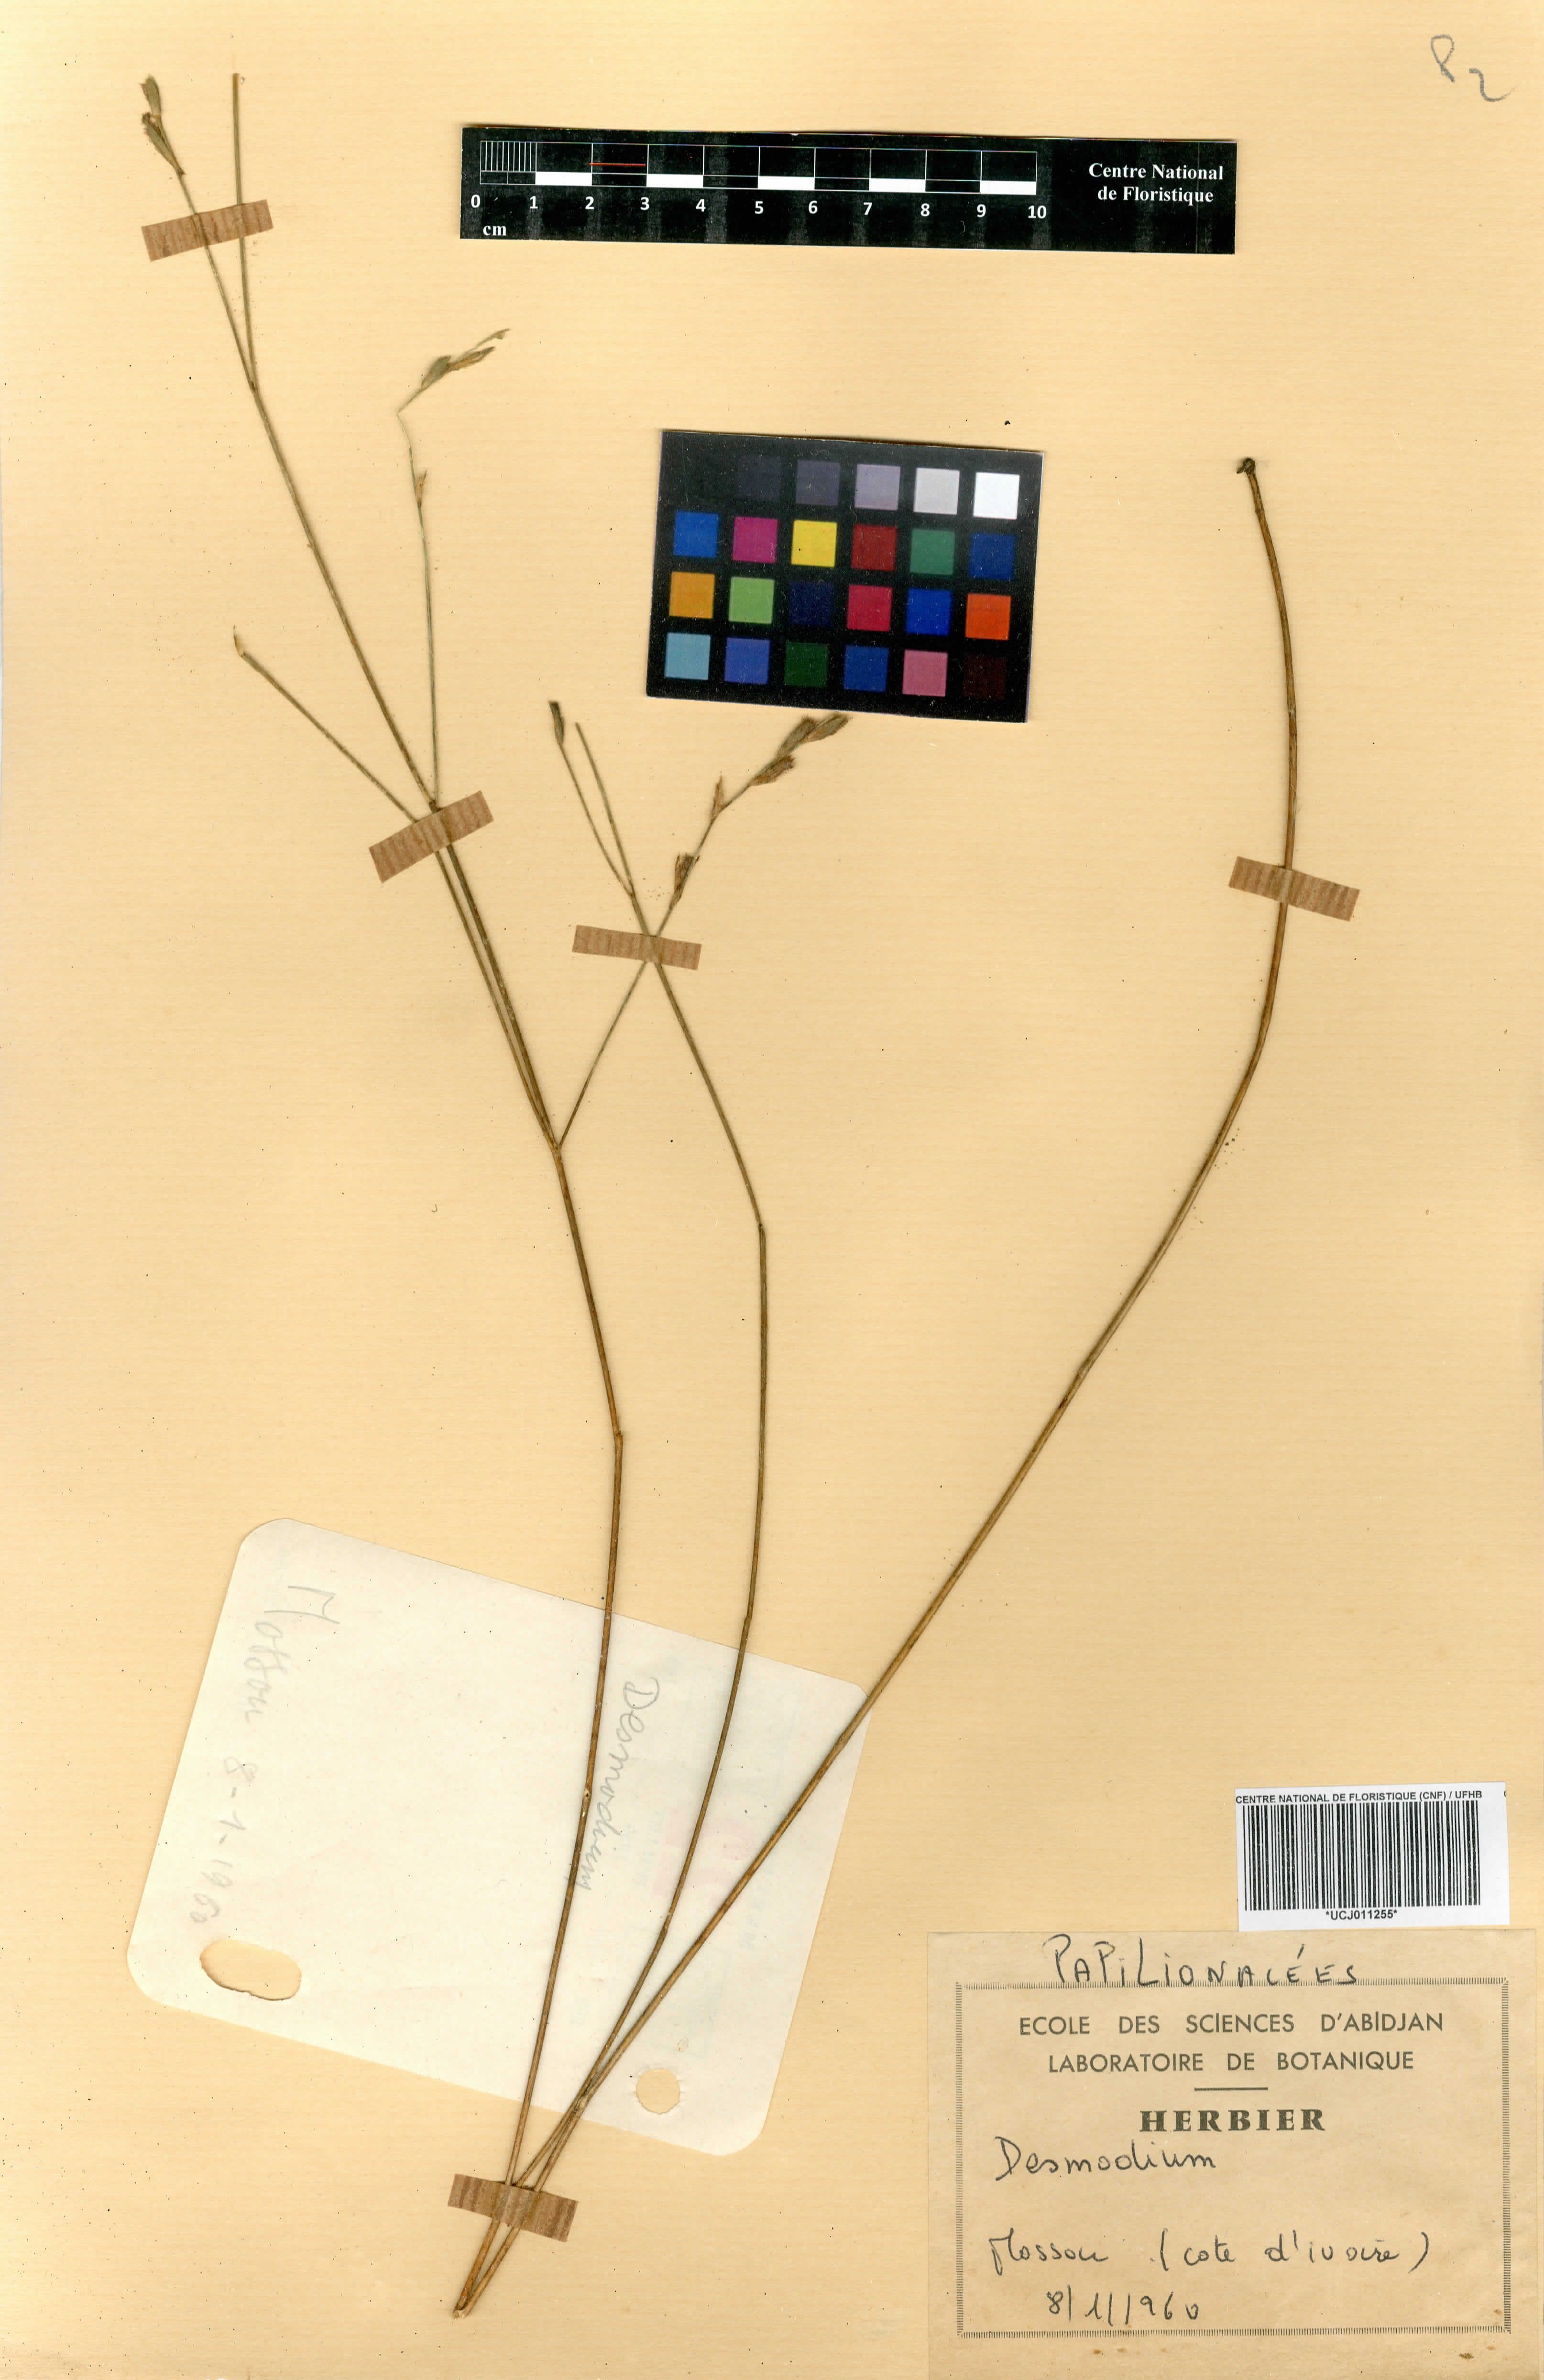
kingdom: Plantae
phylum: Tracheophyta
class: Magnoliopsida
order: Fabales
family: Fabaceae
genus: Zornia
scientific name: Zornia latifolia
